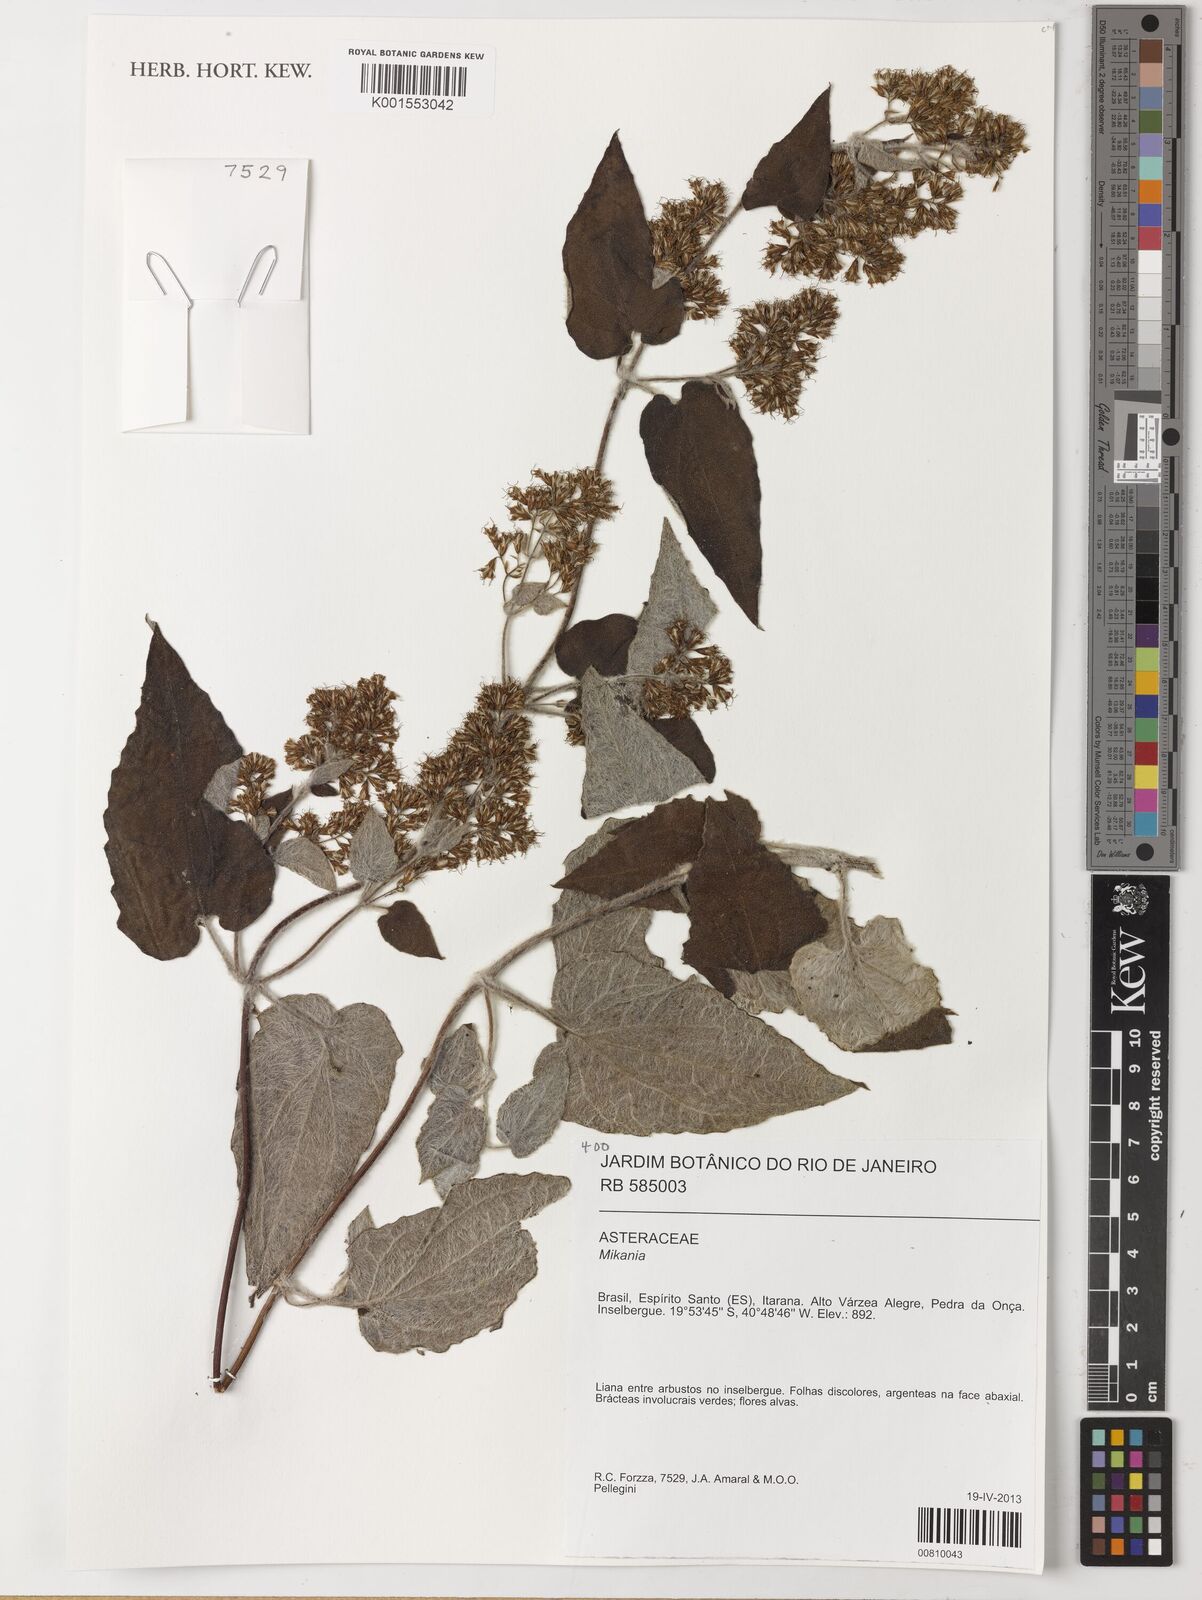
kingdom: Plantae
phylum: Tracheophyta
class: Magnoliopsida
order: Asterales
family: Asteraceae
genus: Mikania
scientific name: Mikania
